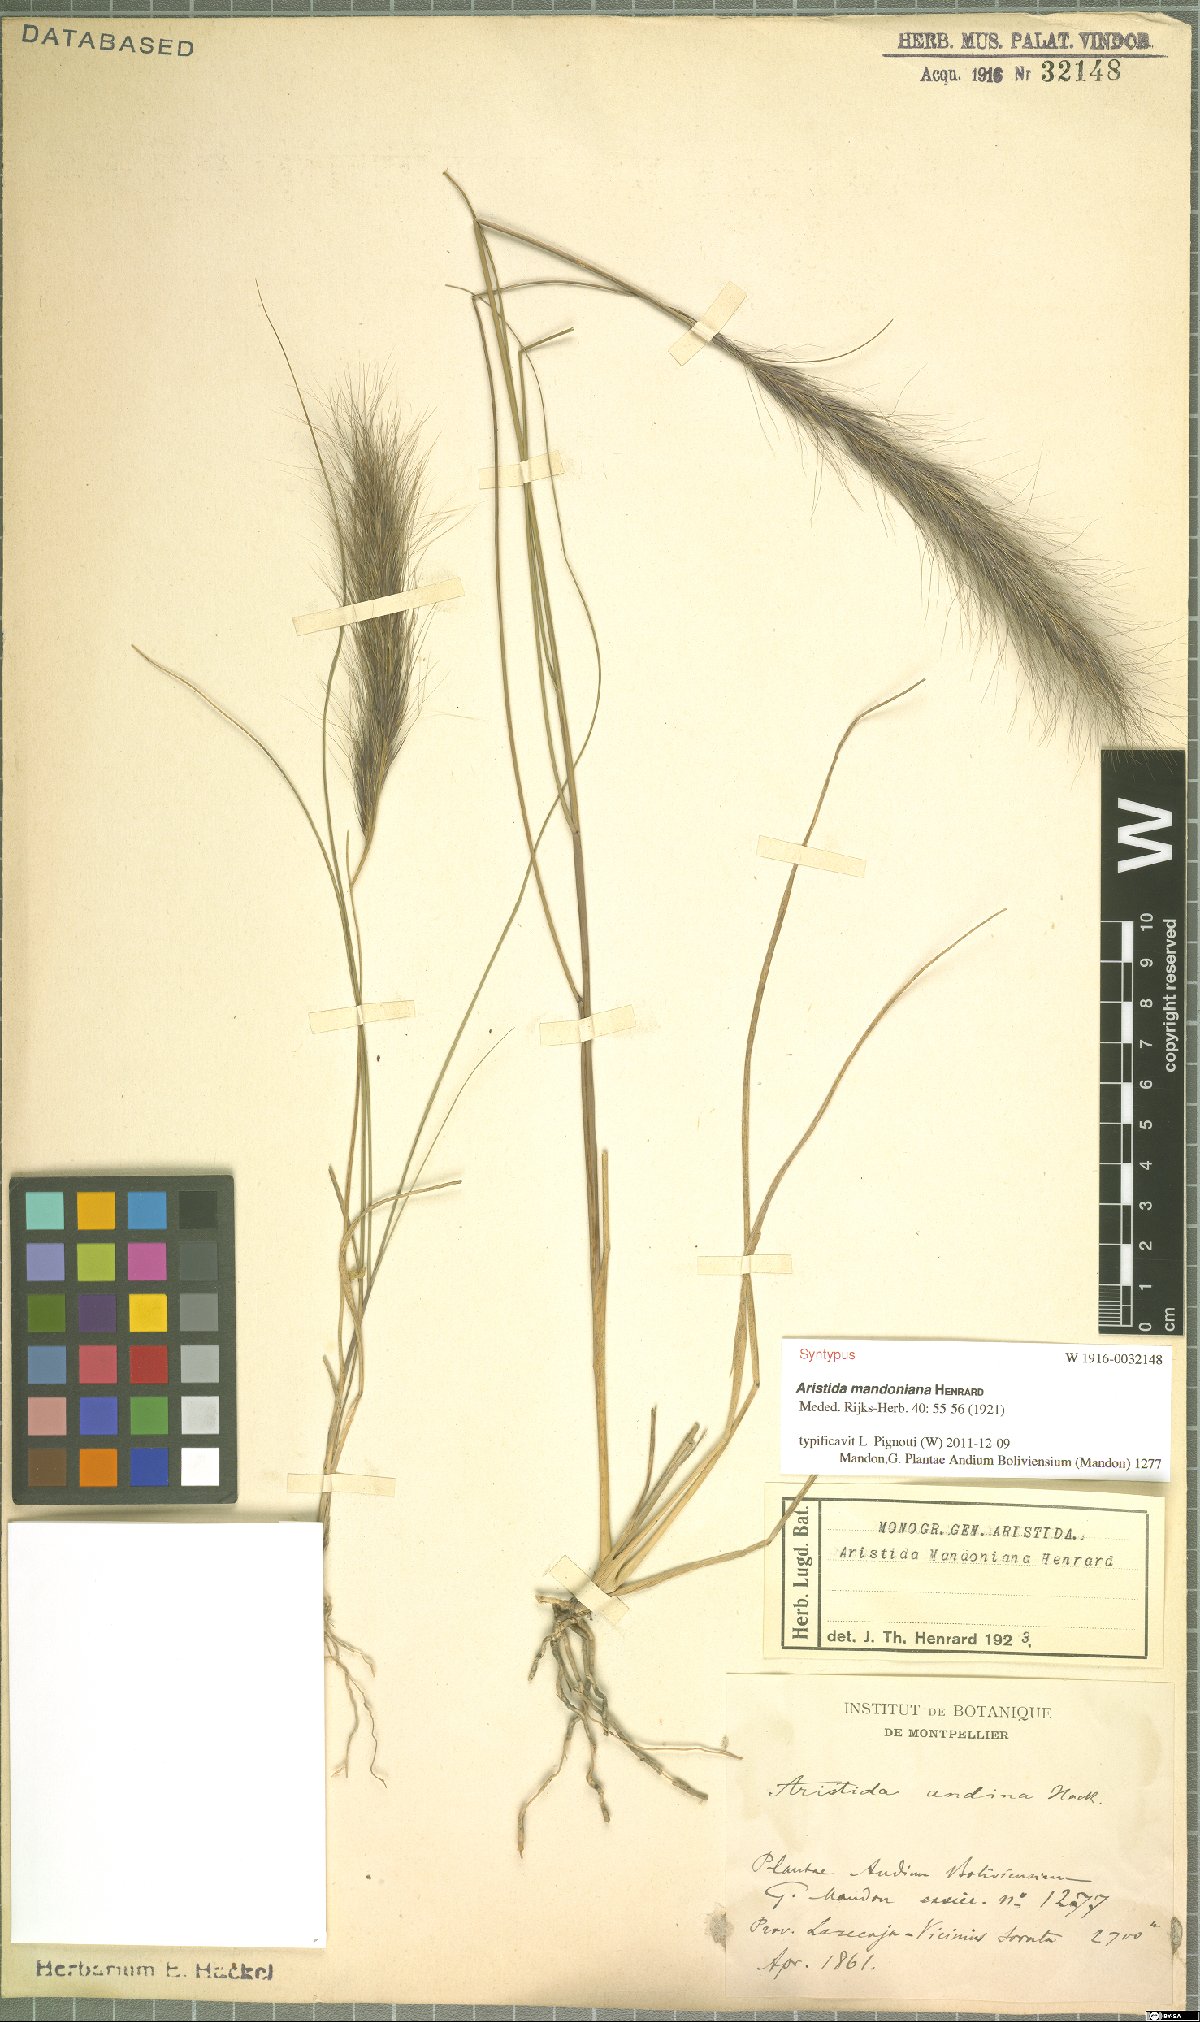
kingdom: Plantae
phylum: Tracheophyta
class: Liliopsida
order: Poales
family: Poaceae
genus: Aristida
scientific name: Aristida mandoniana
